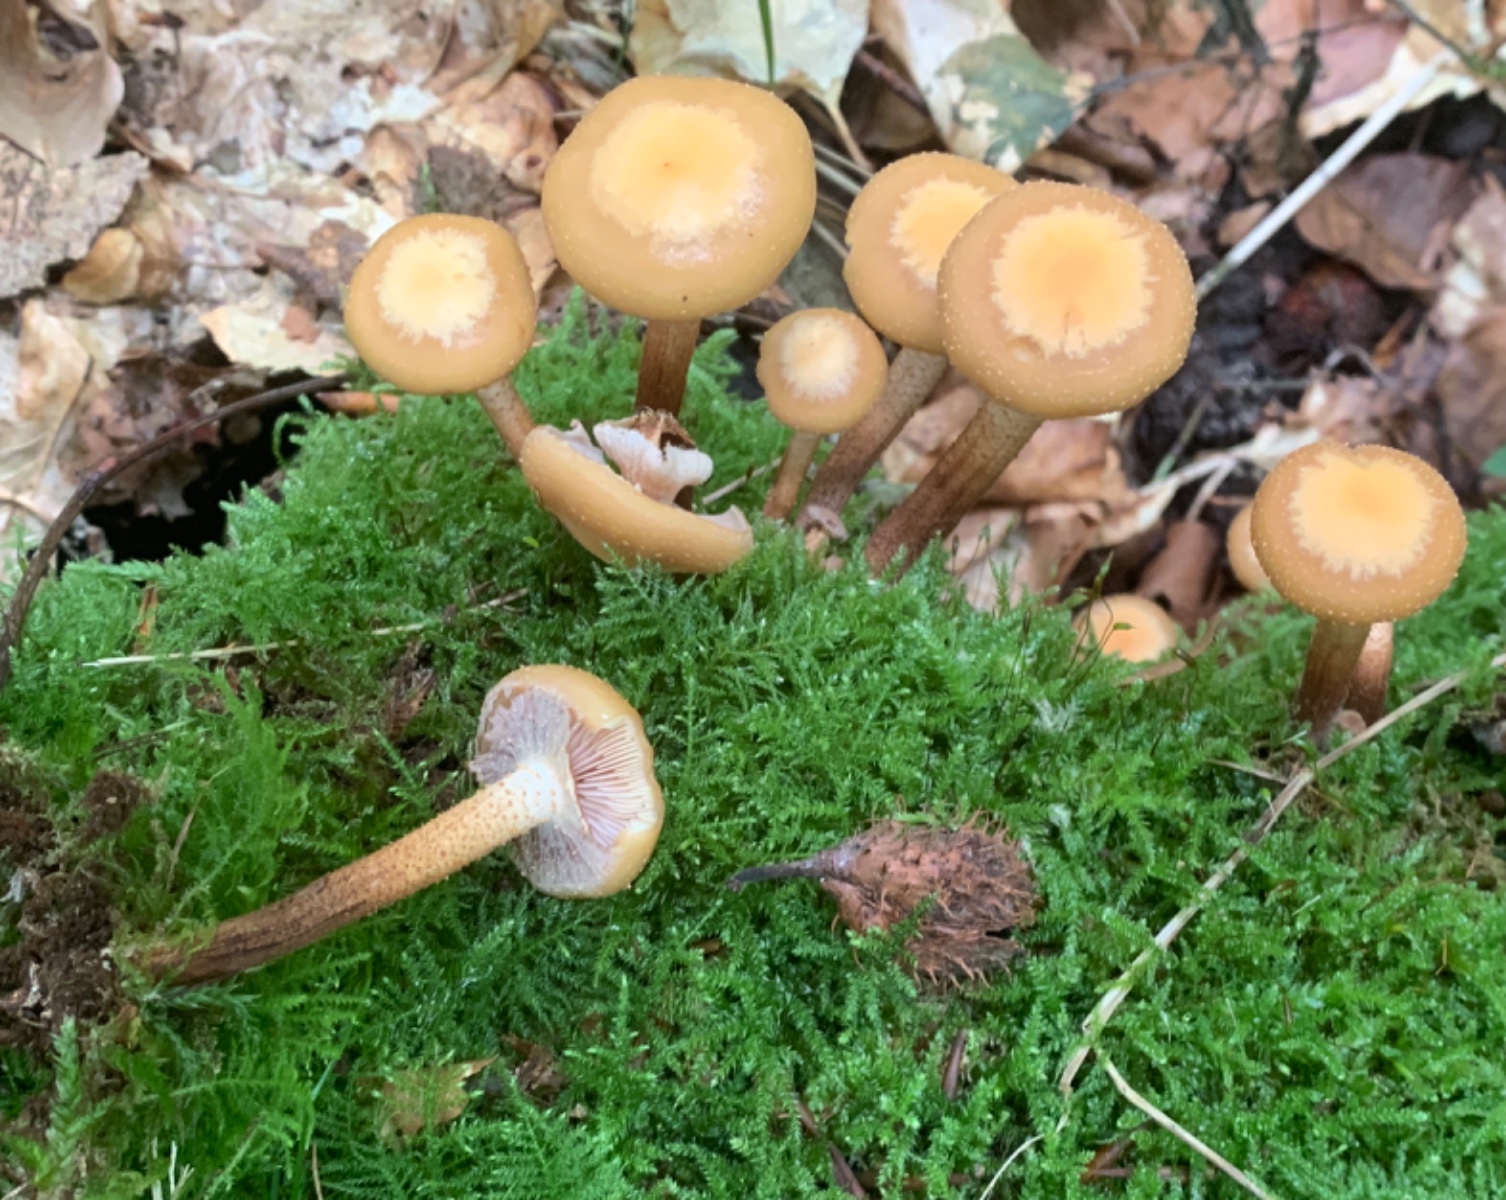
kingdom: Fungi
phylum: Basidiomycota
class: Agaricomycetes
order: Agaricales
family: Strophariaceae
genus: Kuehneromyces
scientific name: Kuehneromyces mutabilis
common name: foranderlig skælhat
